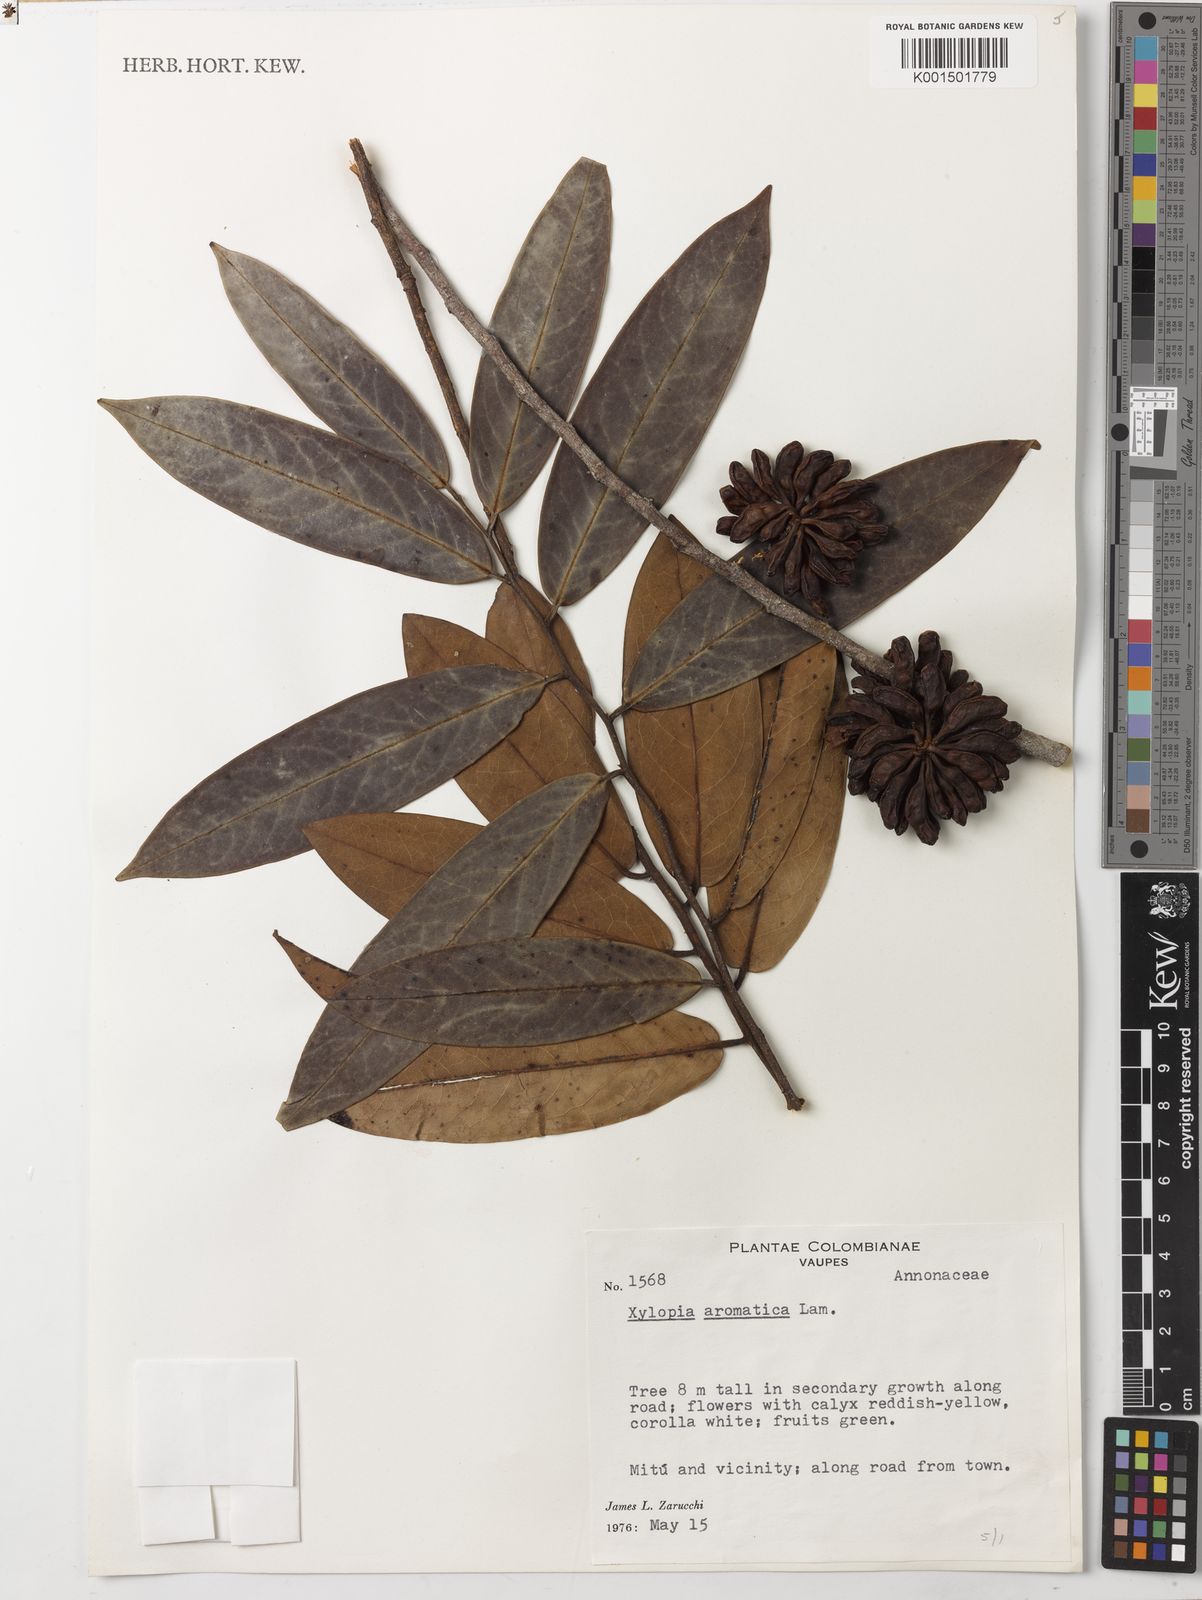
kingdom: Plantae
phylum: Tracheophyta
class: Magnoliopsida
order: Magnoliales
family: Annonaceae
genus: Xylopia
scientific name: Xylopia aromatica
